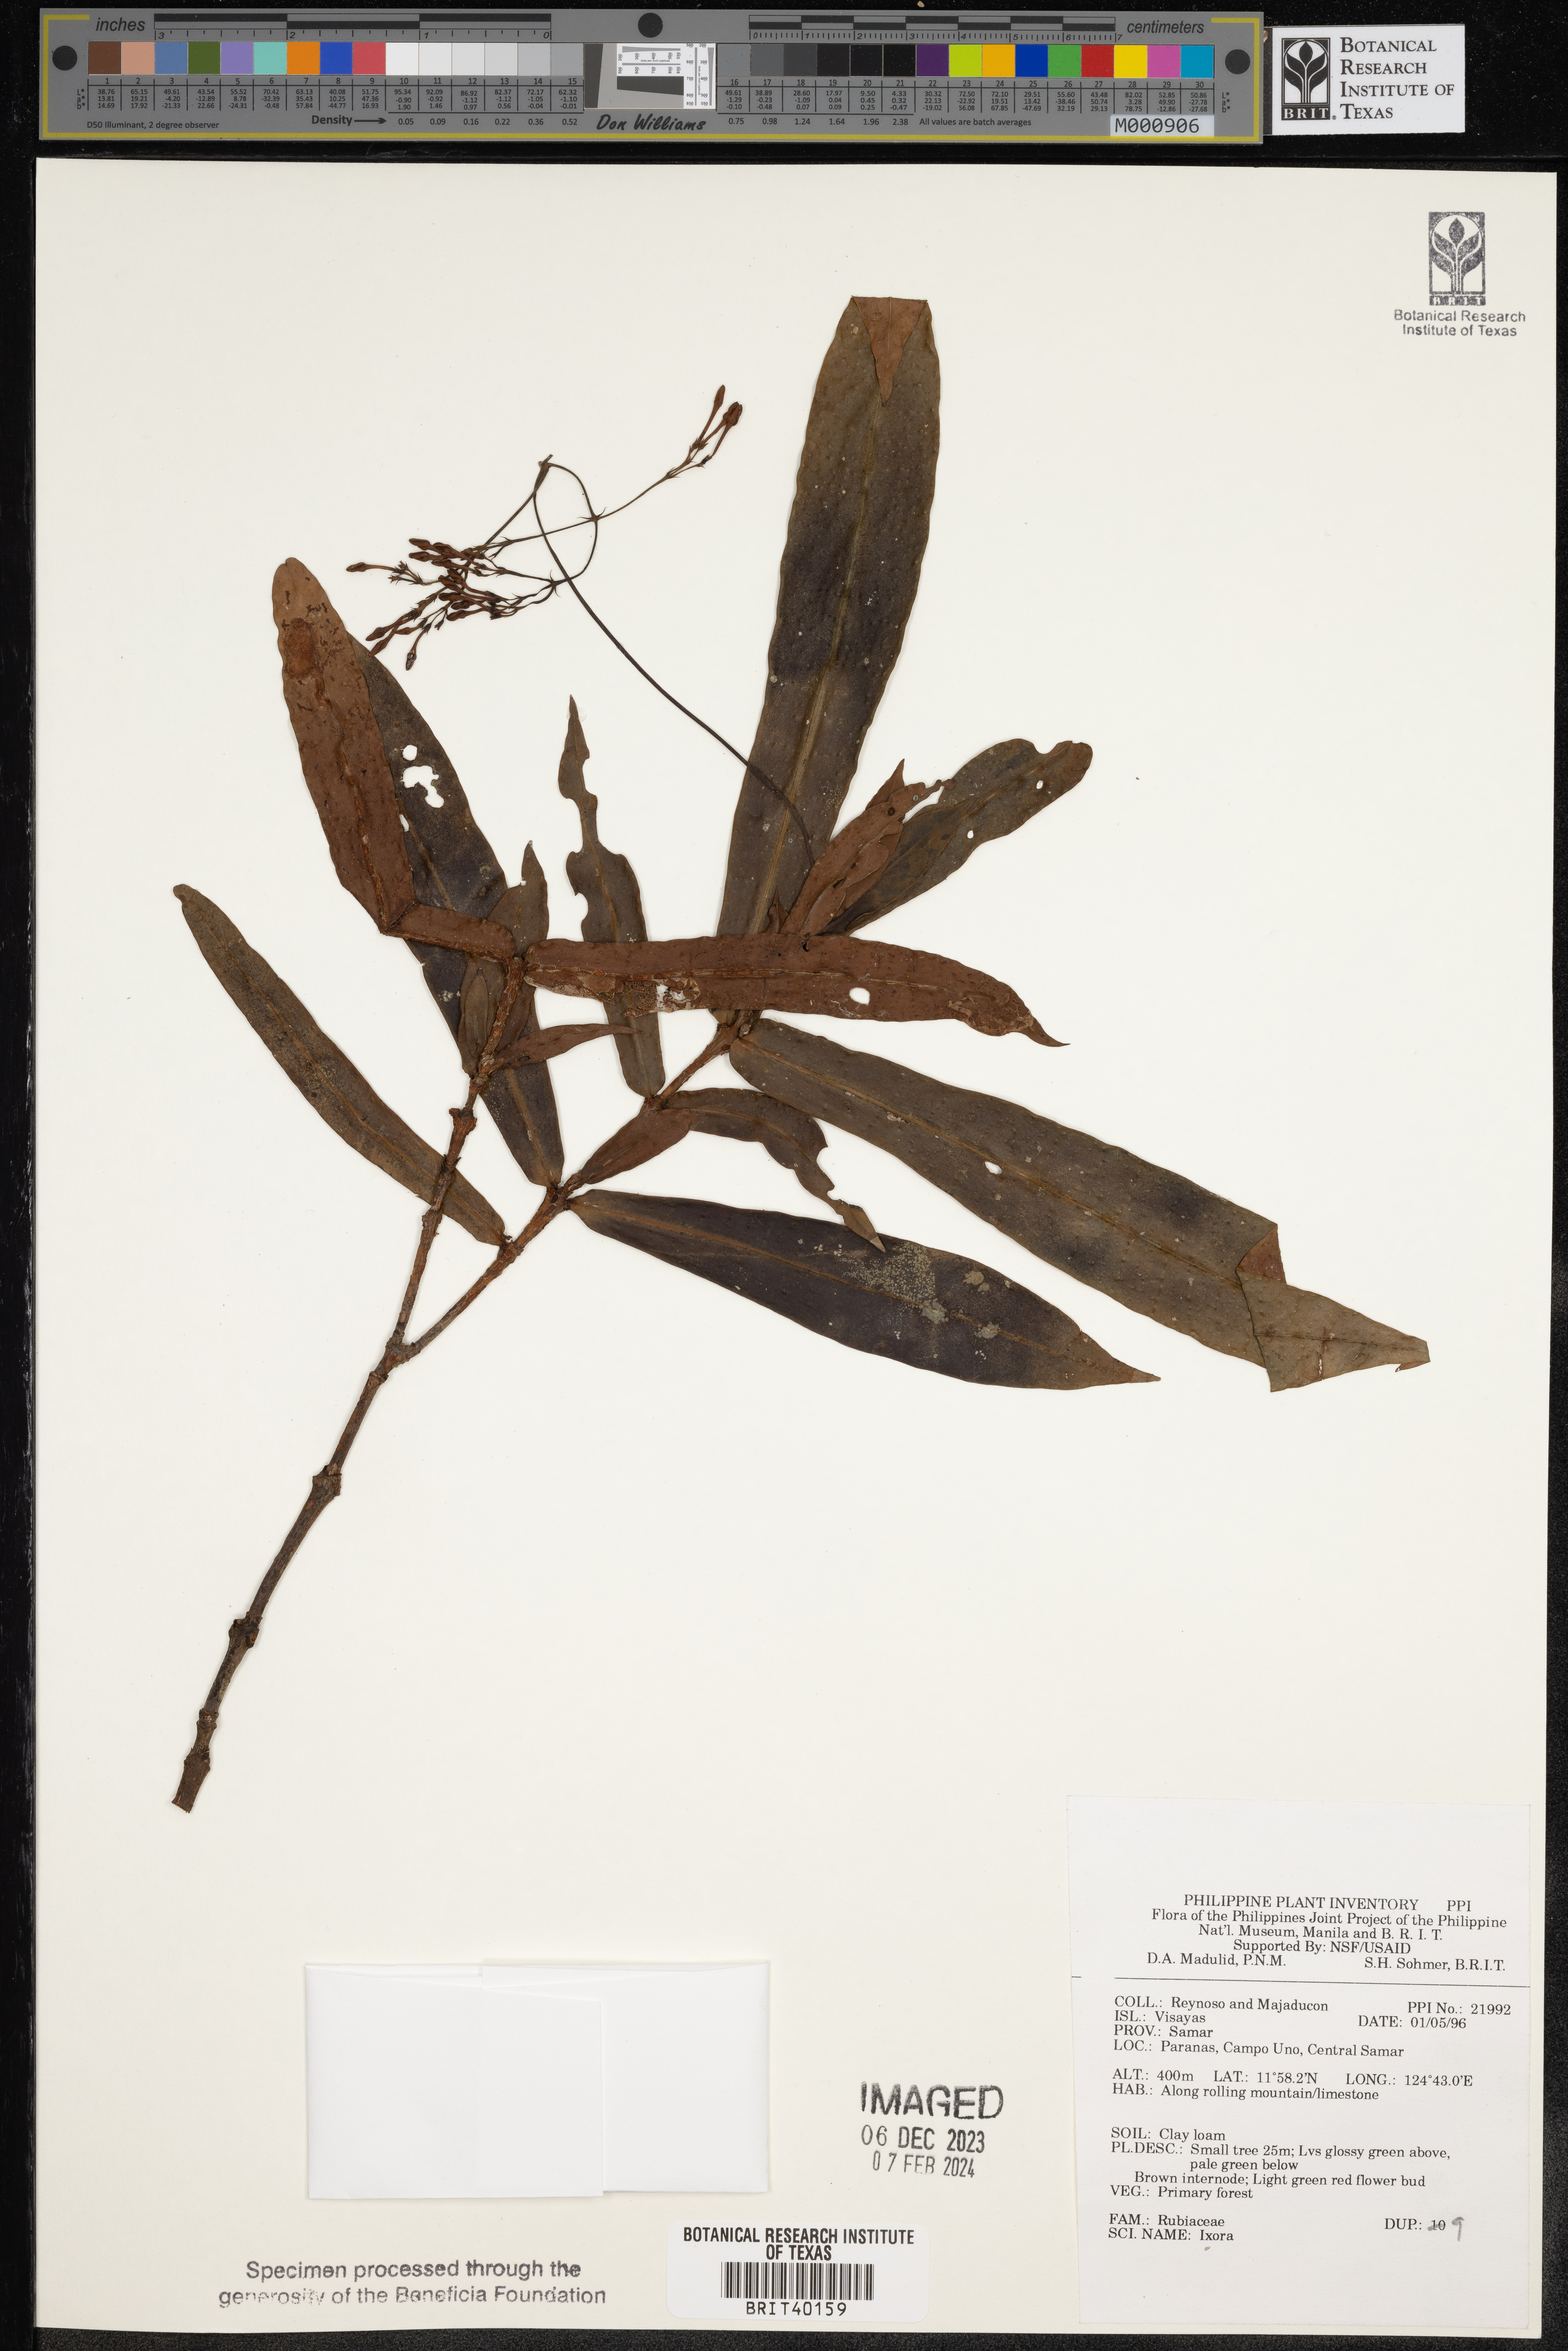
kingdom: Plantae
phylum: Tracheophyta
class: Magnoliopsida
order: Gentianales
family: Rubiaceae
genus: Ixora
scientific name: Ixora
